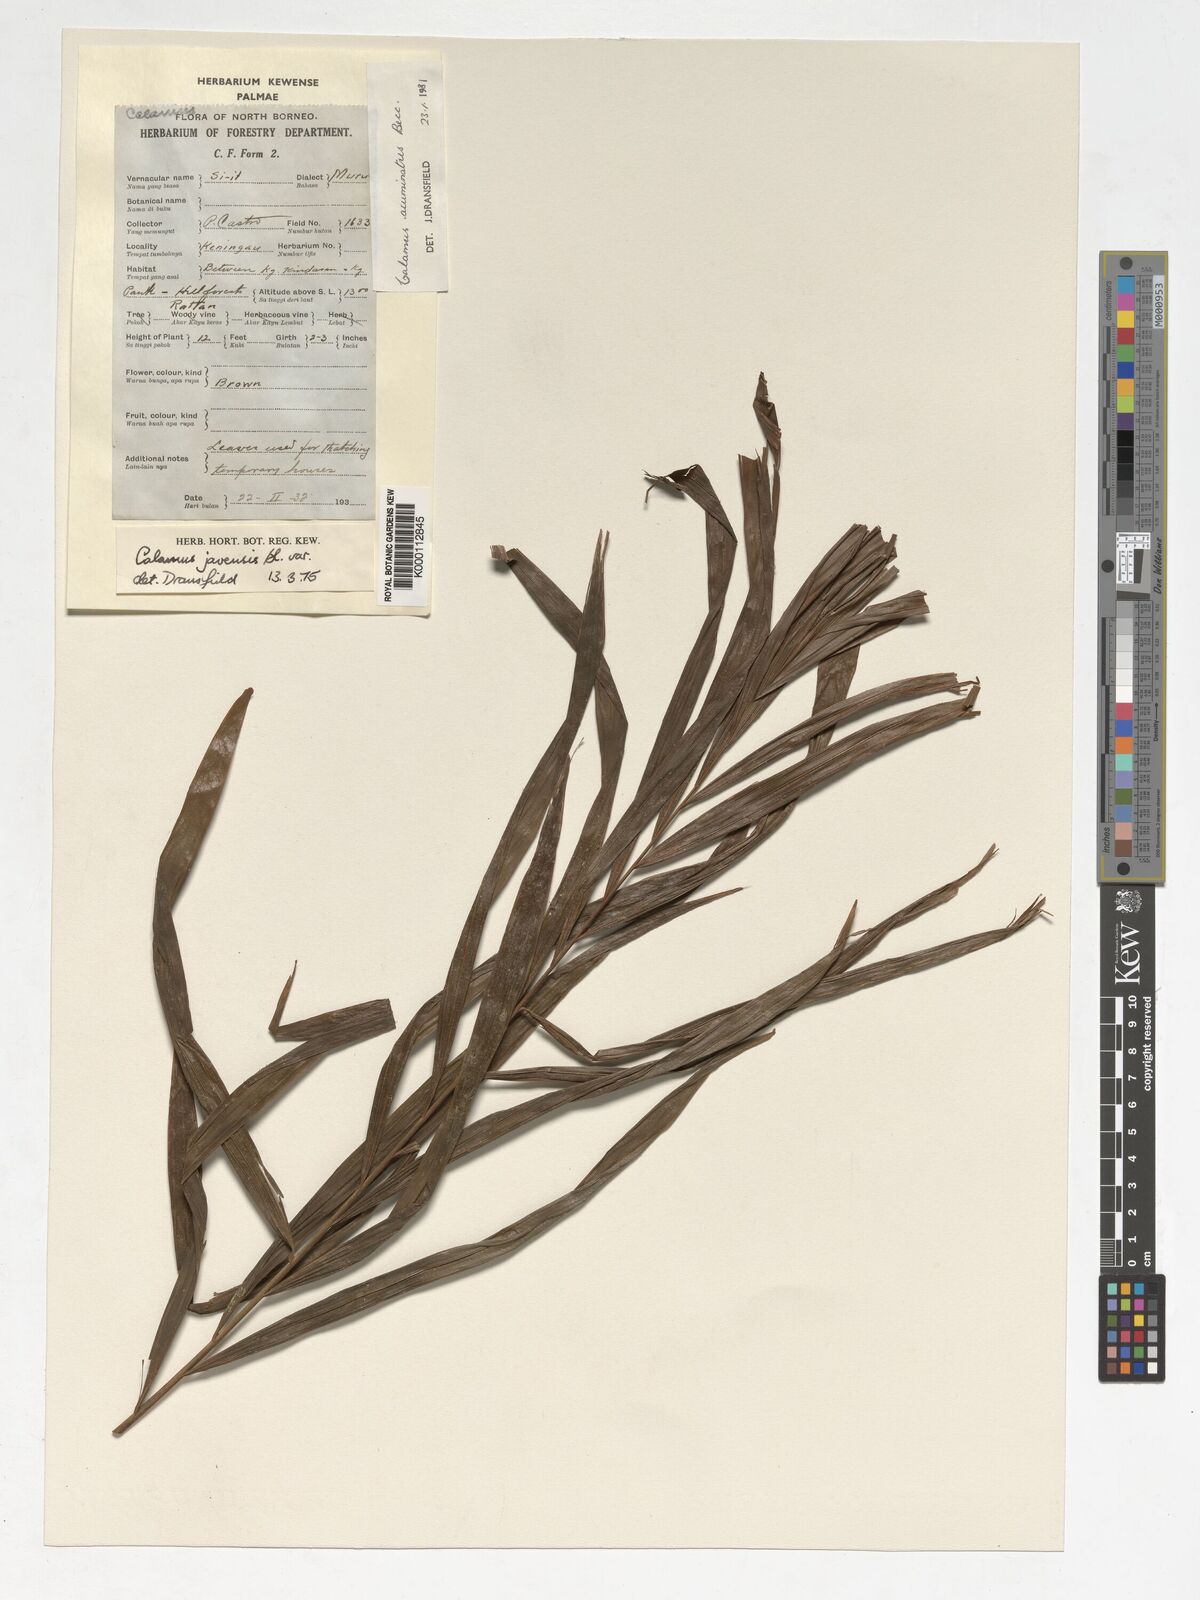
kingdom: Plantae
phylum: Tracheophyta
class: Liliopsida
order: Arecales
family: Arecaceae
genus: Calamus
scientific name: Calamus javensis
